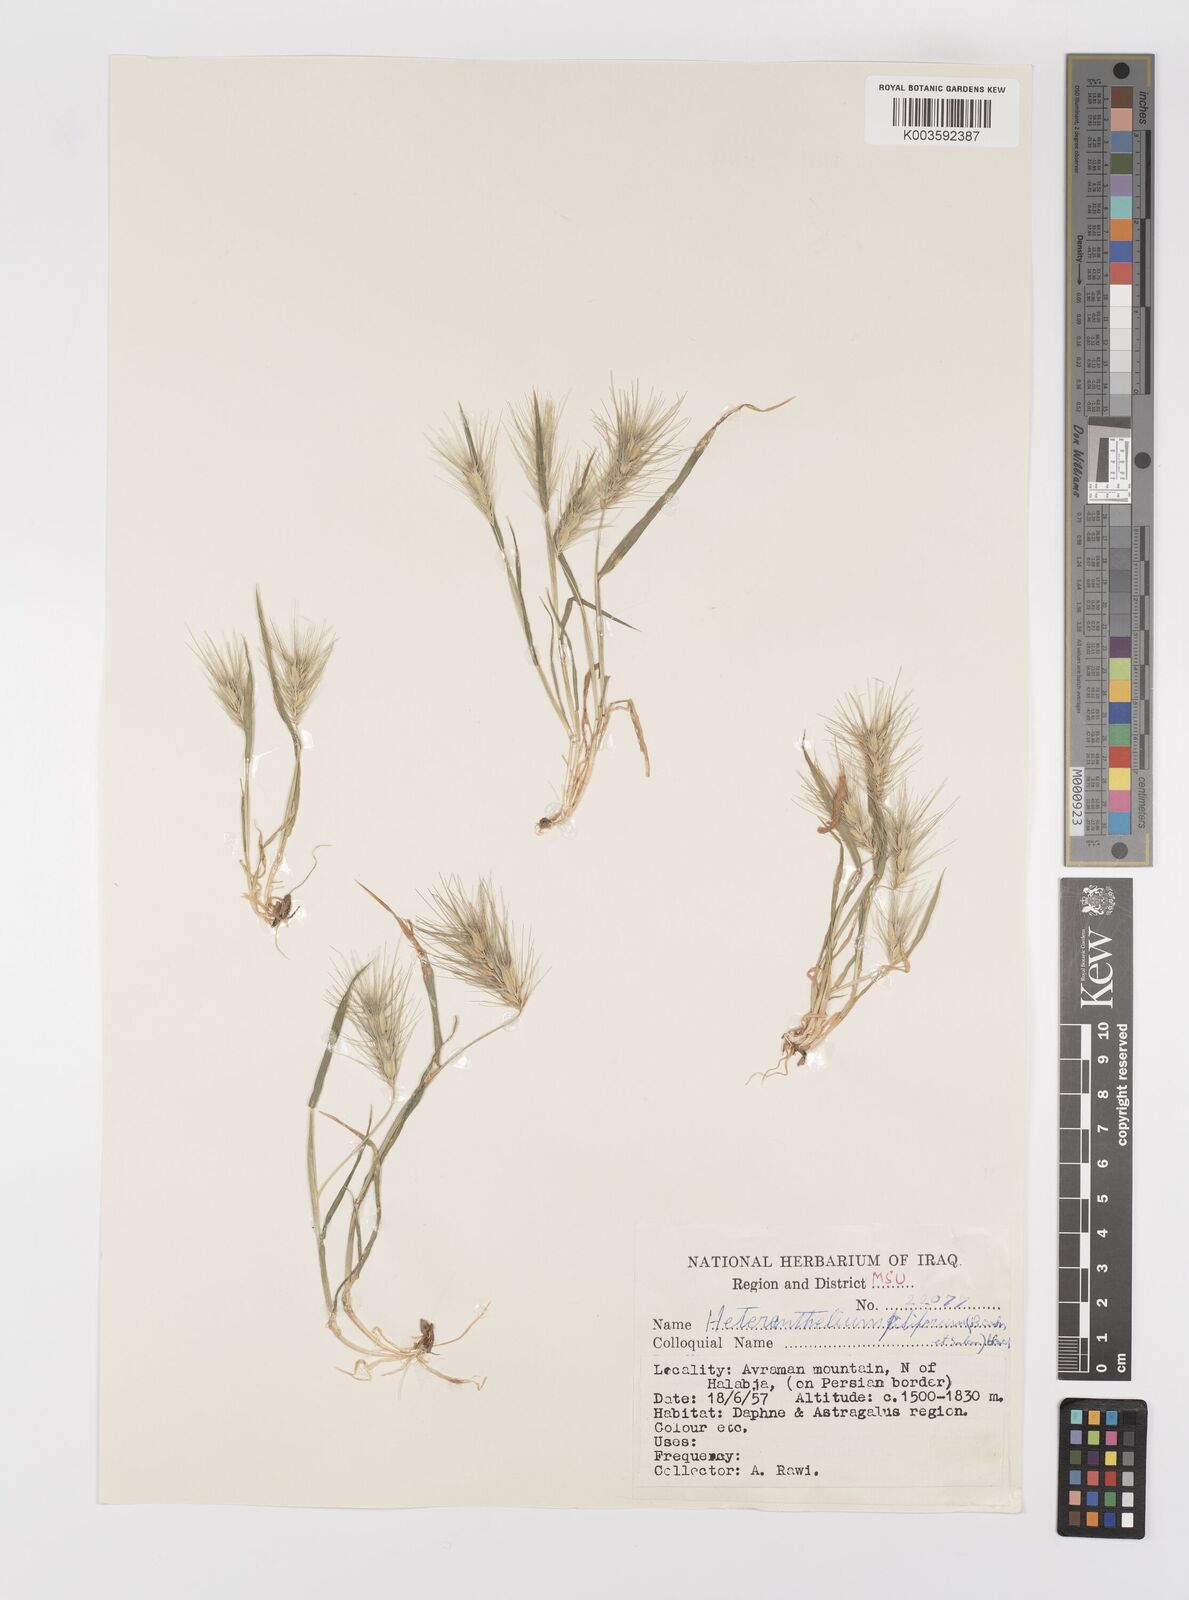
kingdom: Plantae
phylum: Tracheophyta
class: Liliopsida
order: Poales
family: Poaceae
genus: Heteranthelium
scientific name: Heteranthelium piliferum
